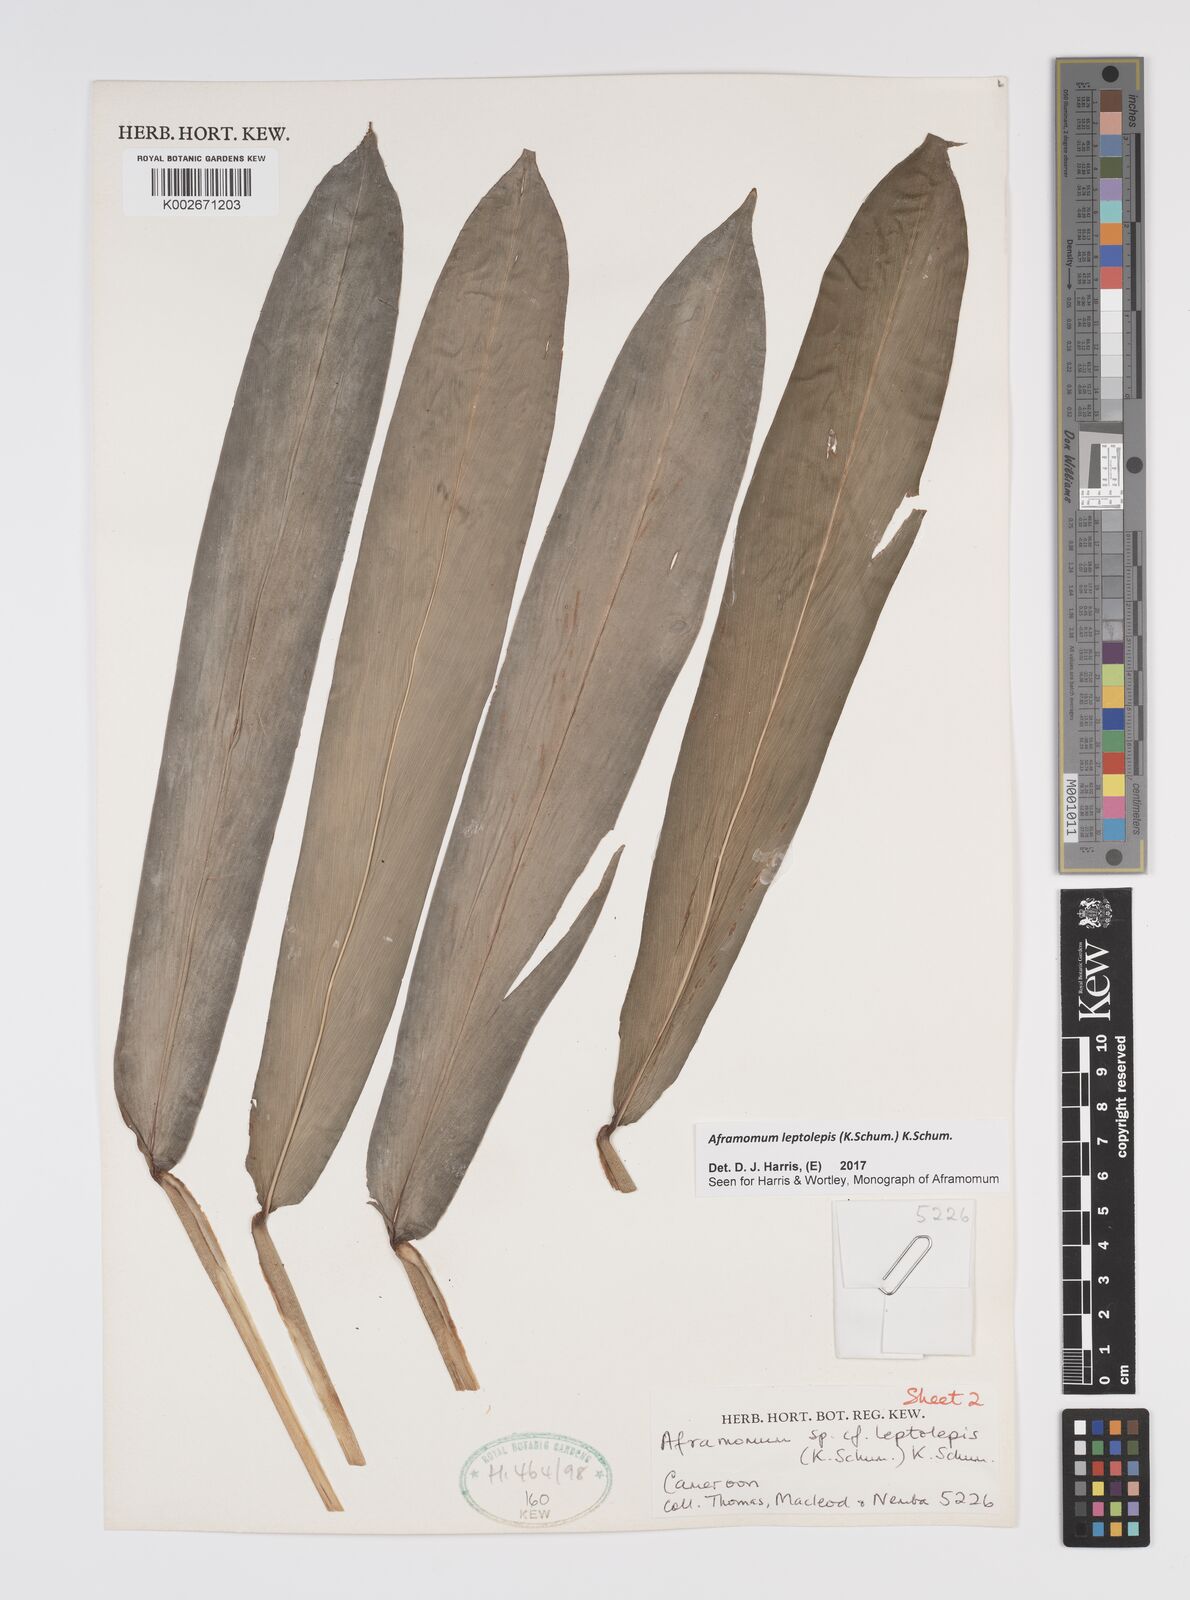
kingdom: Plantae
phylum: Tracheophyta
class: Liliopsida
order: Zingiberales
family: Zingiberaceae
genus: Aframomum
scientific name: Aframomum leptolepis
